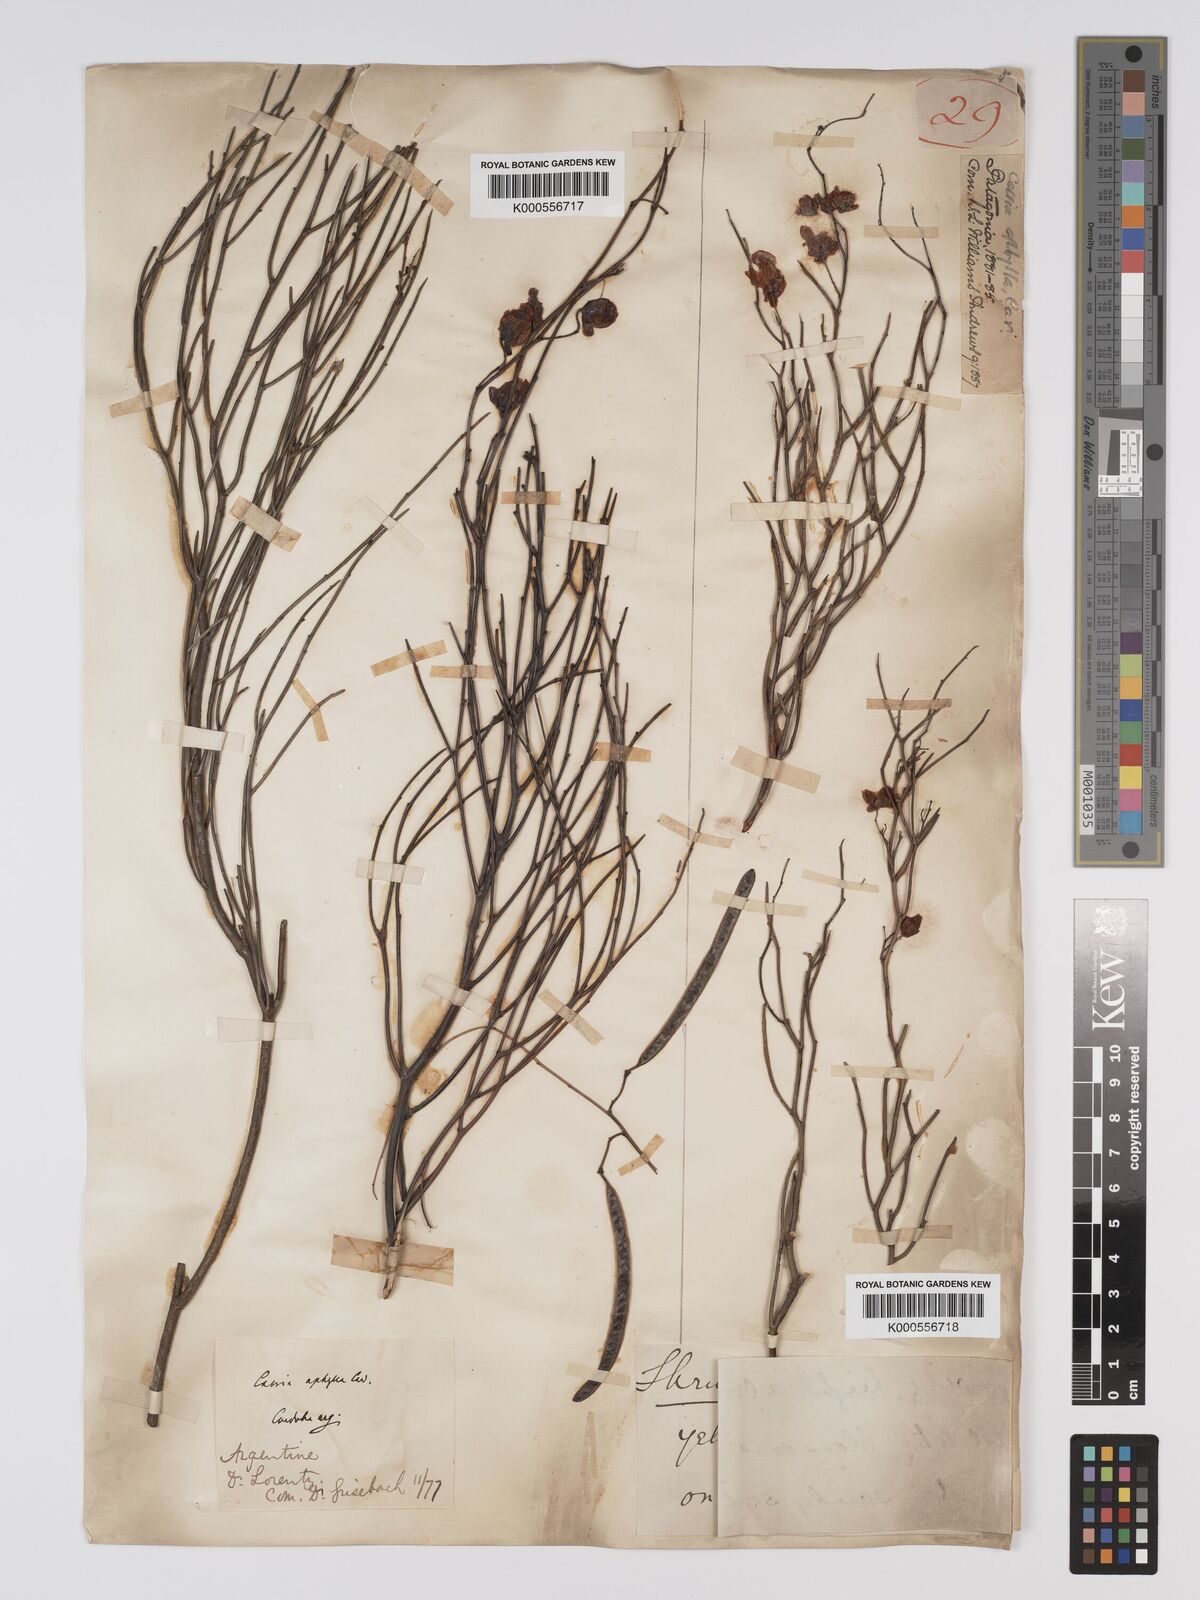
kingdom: Plantae
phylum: Tracheophyta
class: Magnoliopsida
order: Fabales
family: Fabaceae
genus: Senna
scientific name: Senna aphylla
